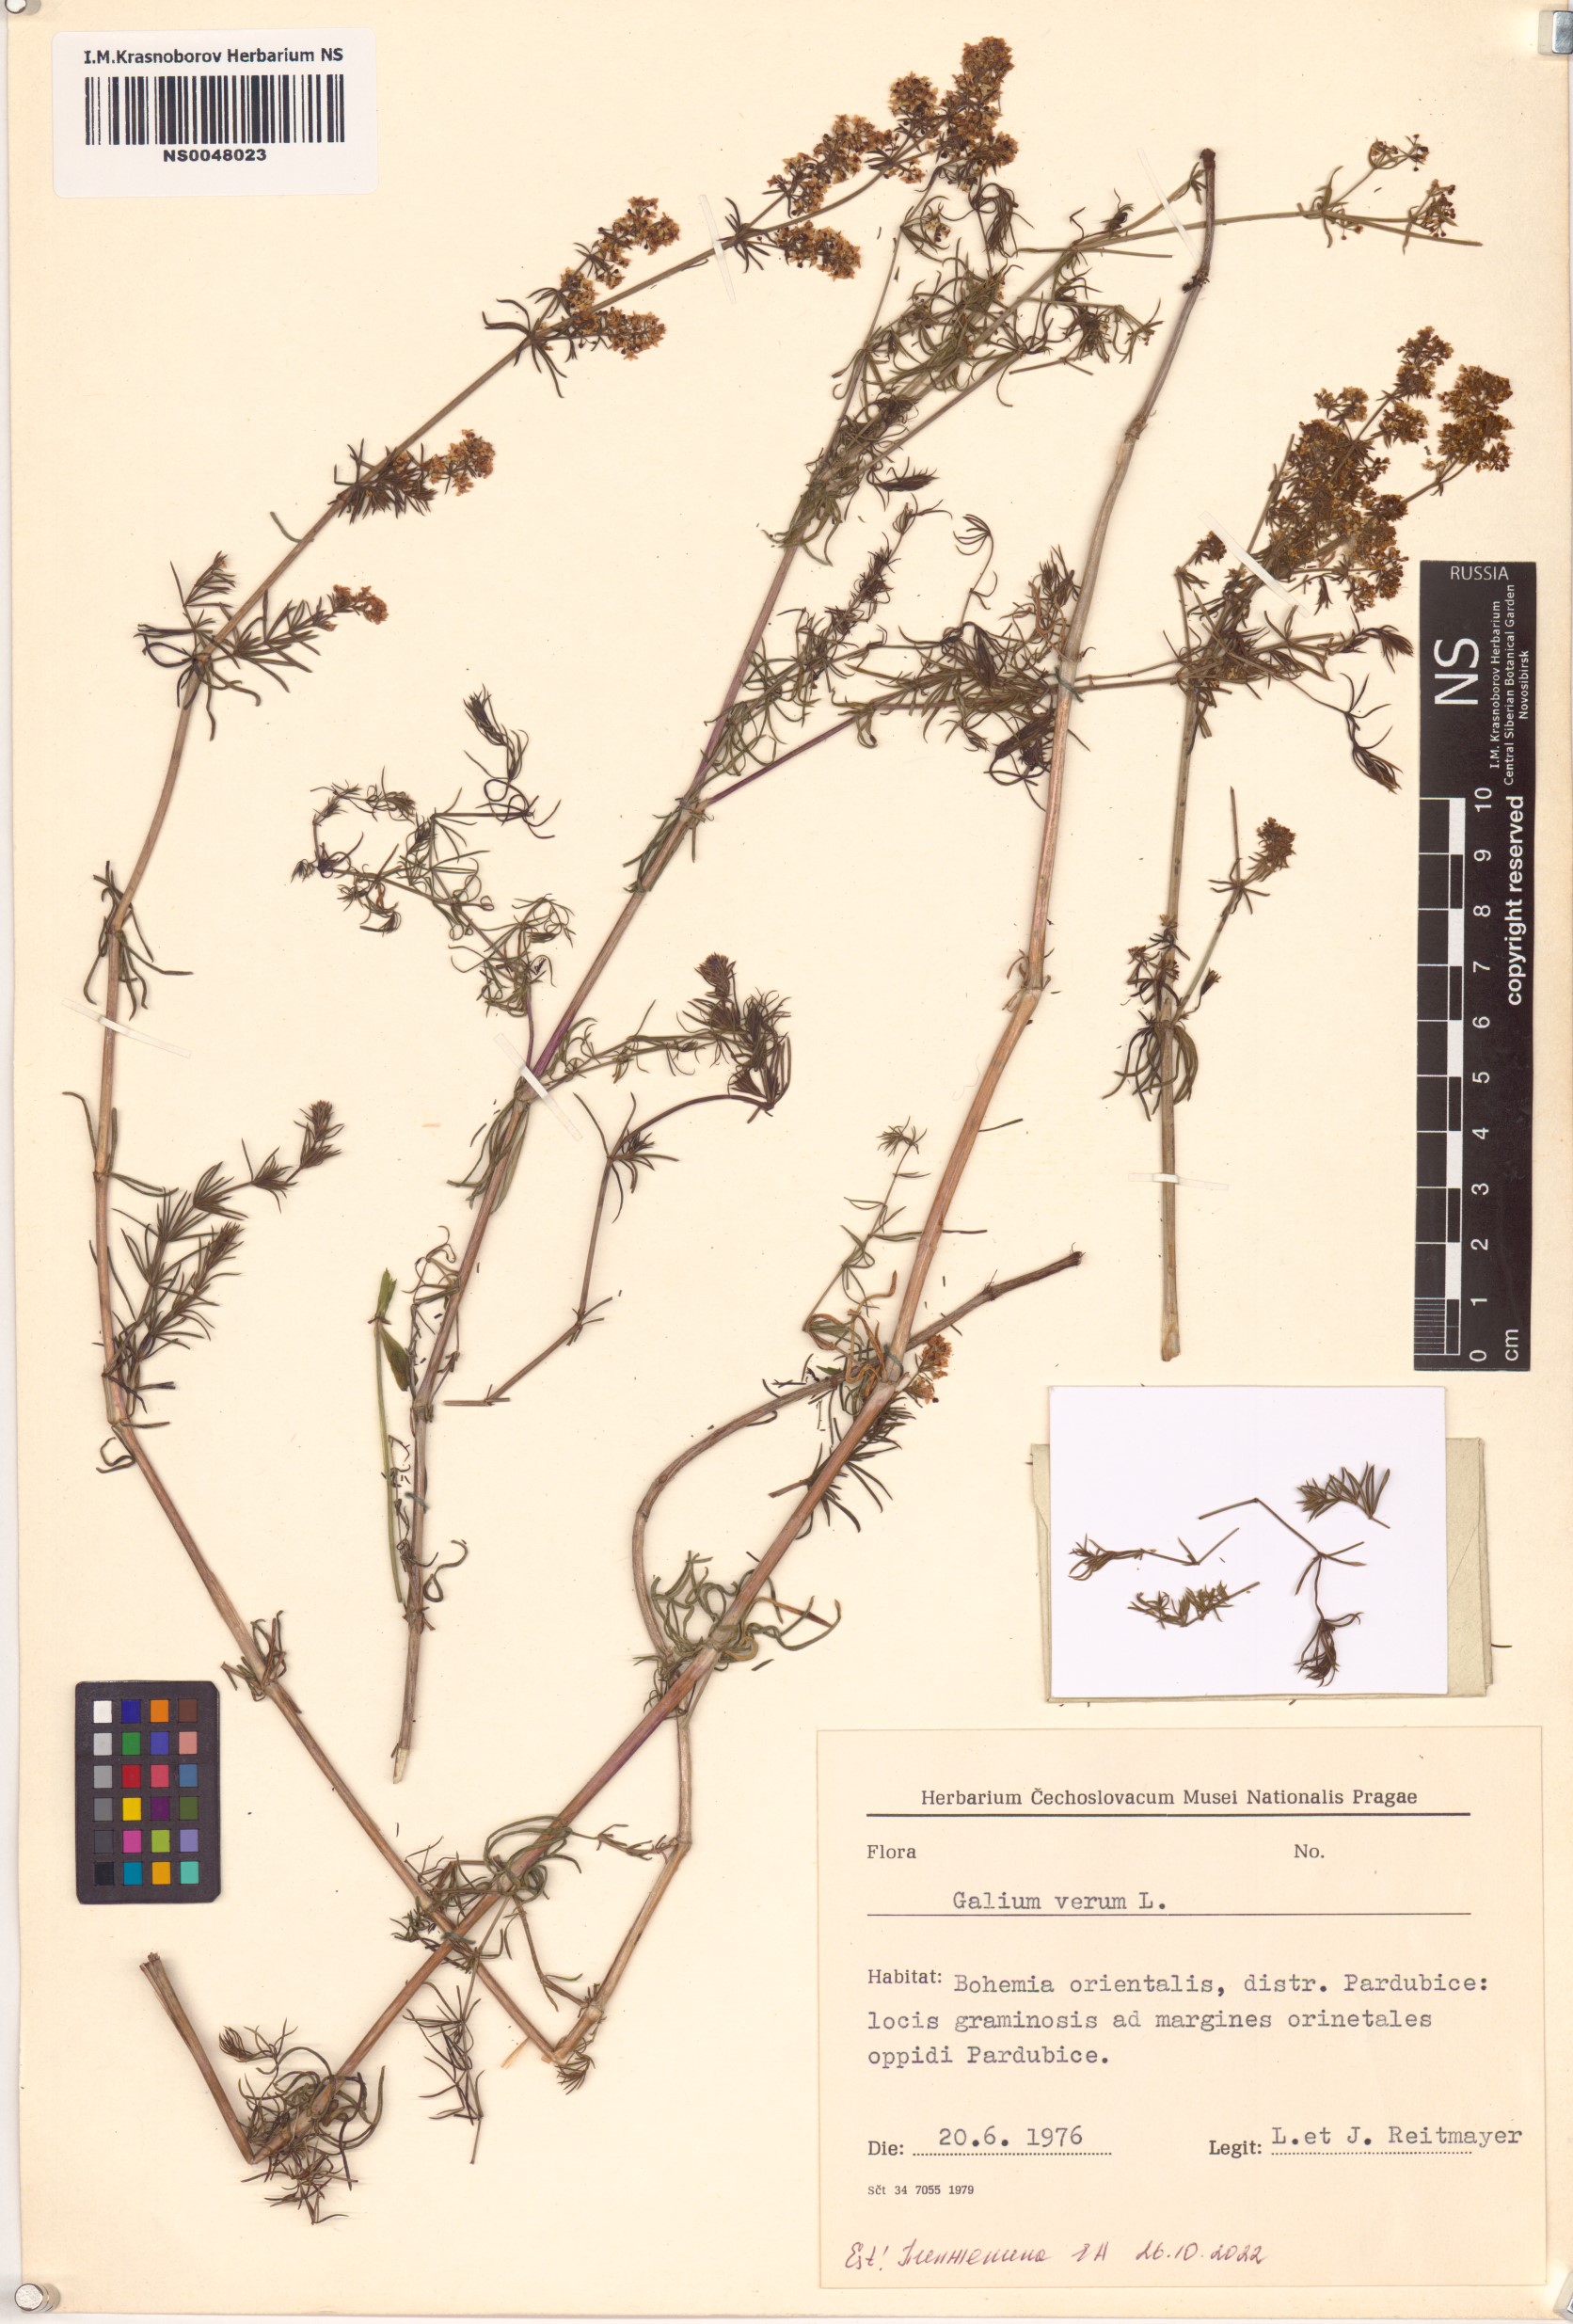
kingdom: Plantae
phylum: Tracheophyta
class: Magnoliopsida
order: Gentianales
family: Rubiaceae
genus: Galium
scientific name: Galium verum
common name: Lady's bedstraw
